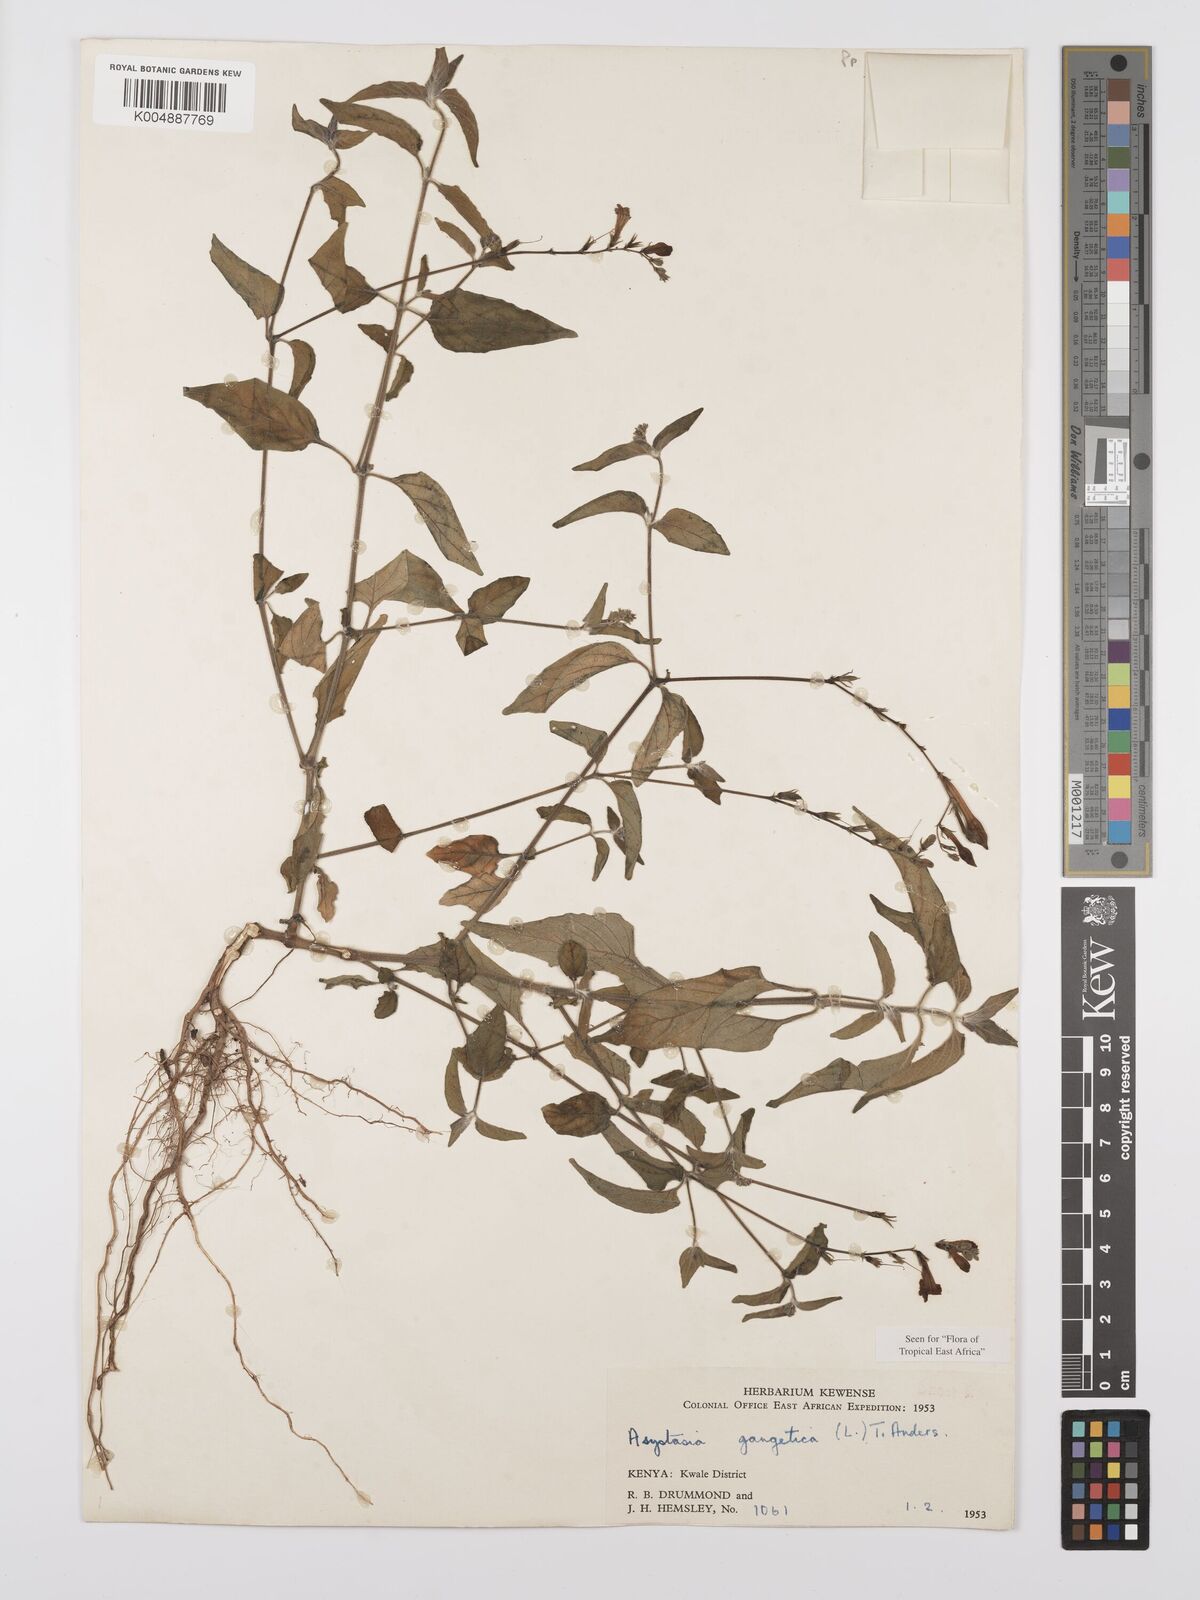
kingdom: Plantae
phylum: Tracheophyta
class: Magnoliopsida
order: Lamiales
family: Acanthaceae
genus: Asystasia
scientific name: Asystasia gangetica
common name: Chinese violet
